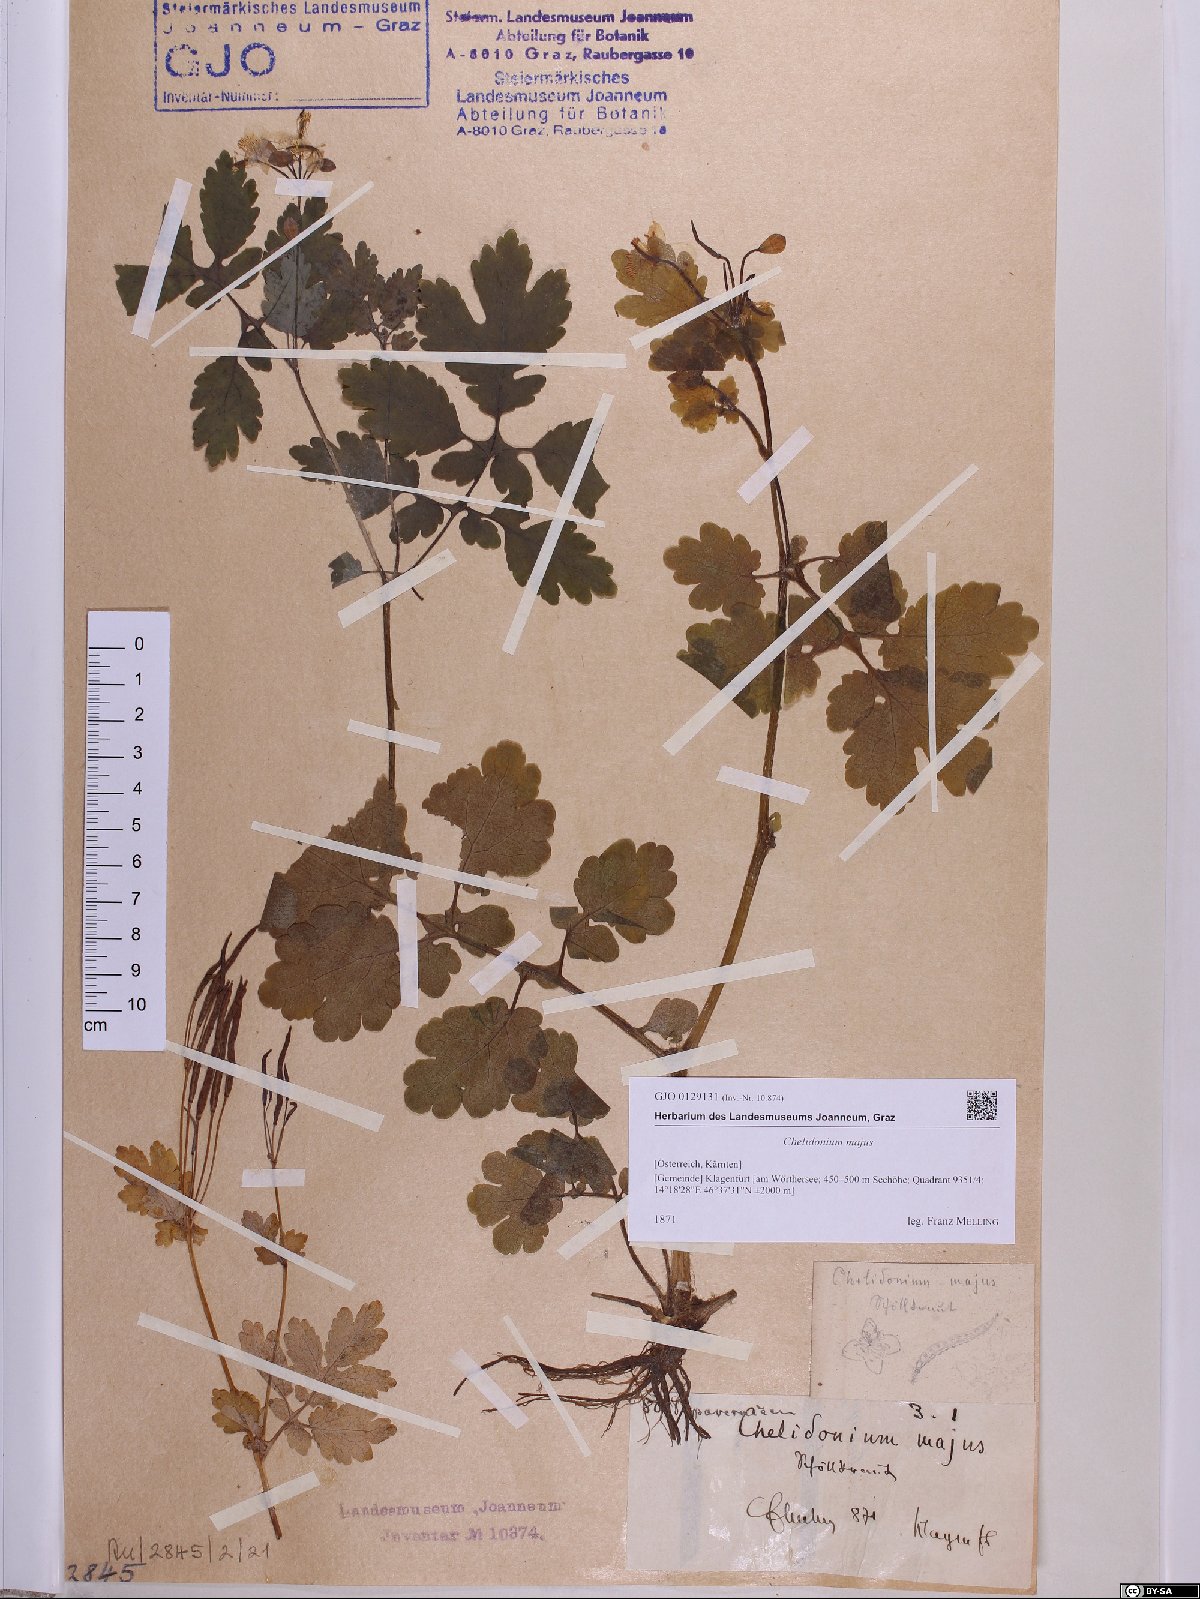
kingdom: Plantae
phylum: Tracheophyta
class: Magnoliopsida
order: Ranunculales
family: Papaveraceae
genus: Chelidonium
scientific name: Chelidonium majus
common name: Greater celandine
